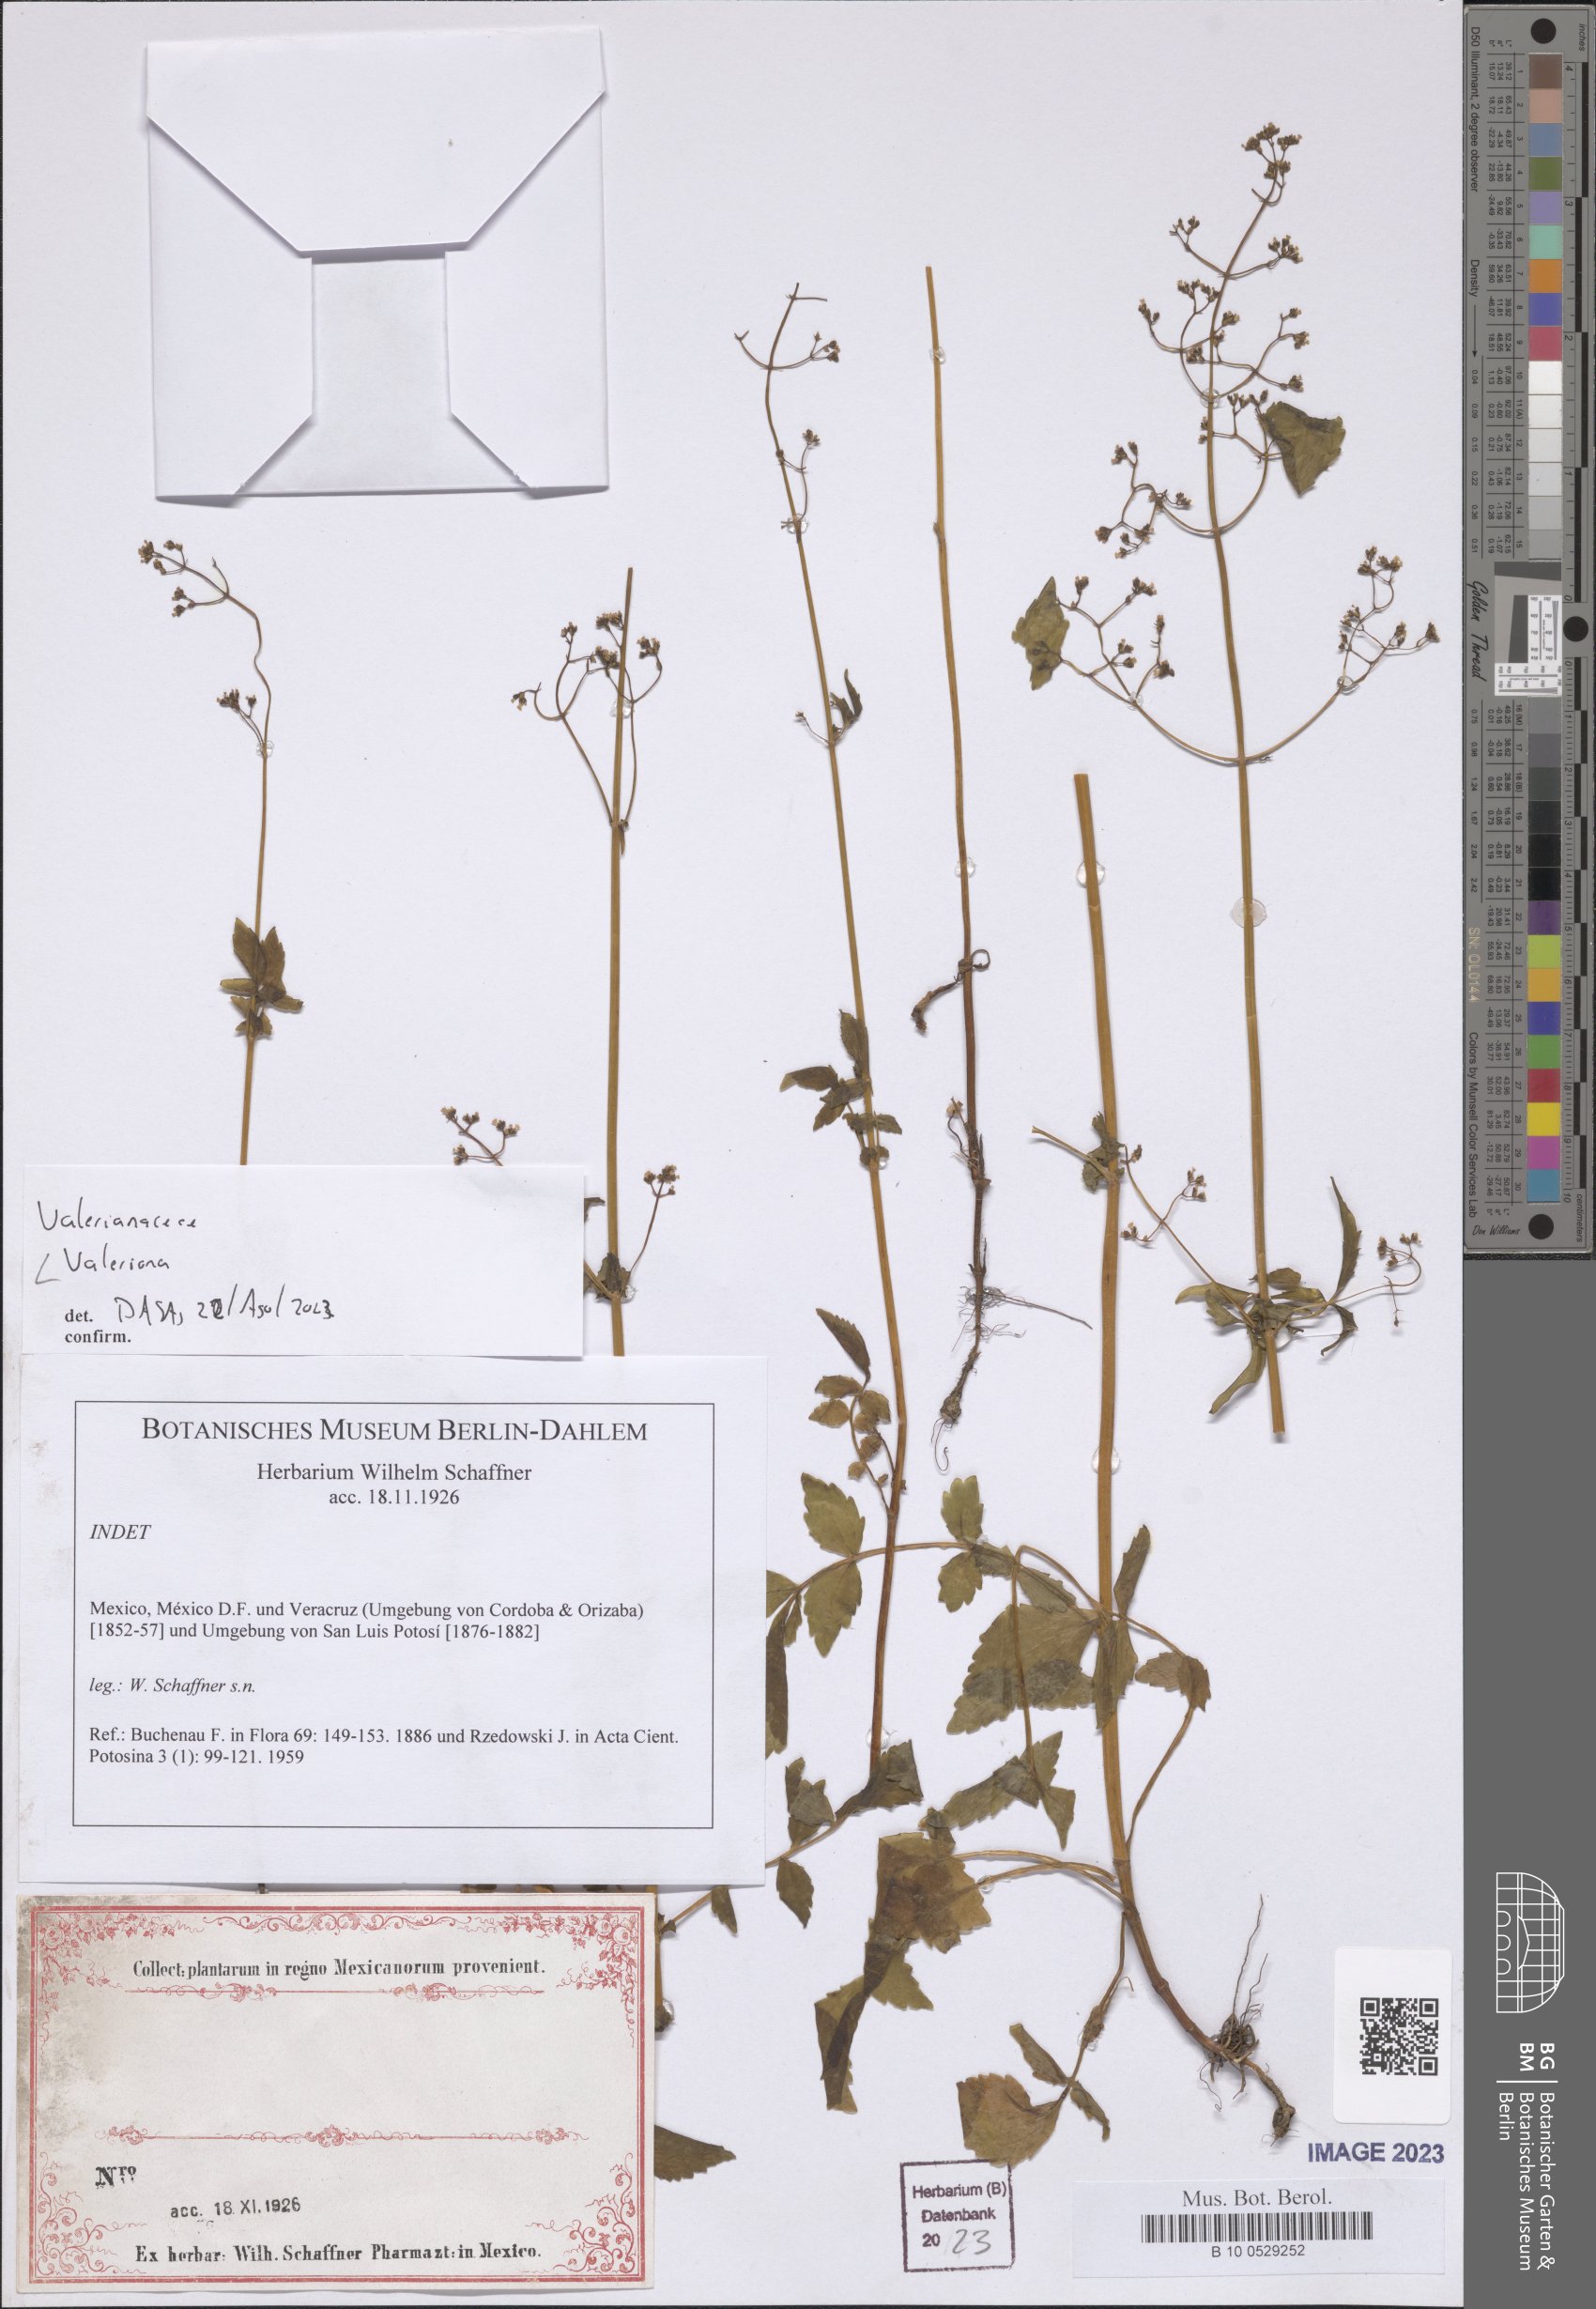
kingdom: Plantae
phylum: Tracheophyta
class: Magnoliopsida
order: Dipsacales
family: Caprifoliaceae
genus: Valeriana
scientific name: Valeriana
